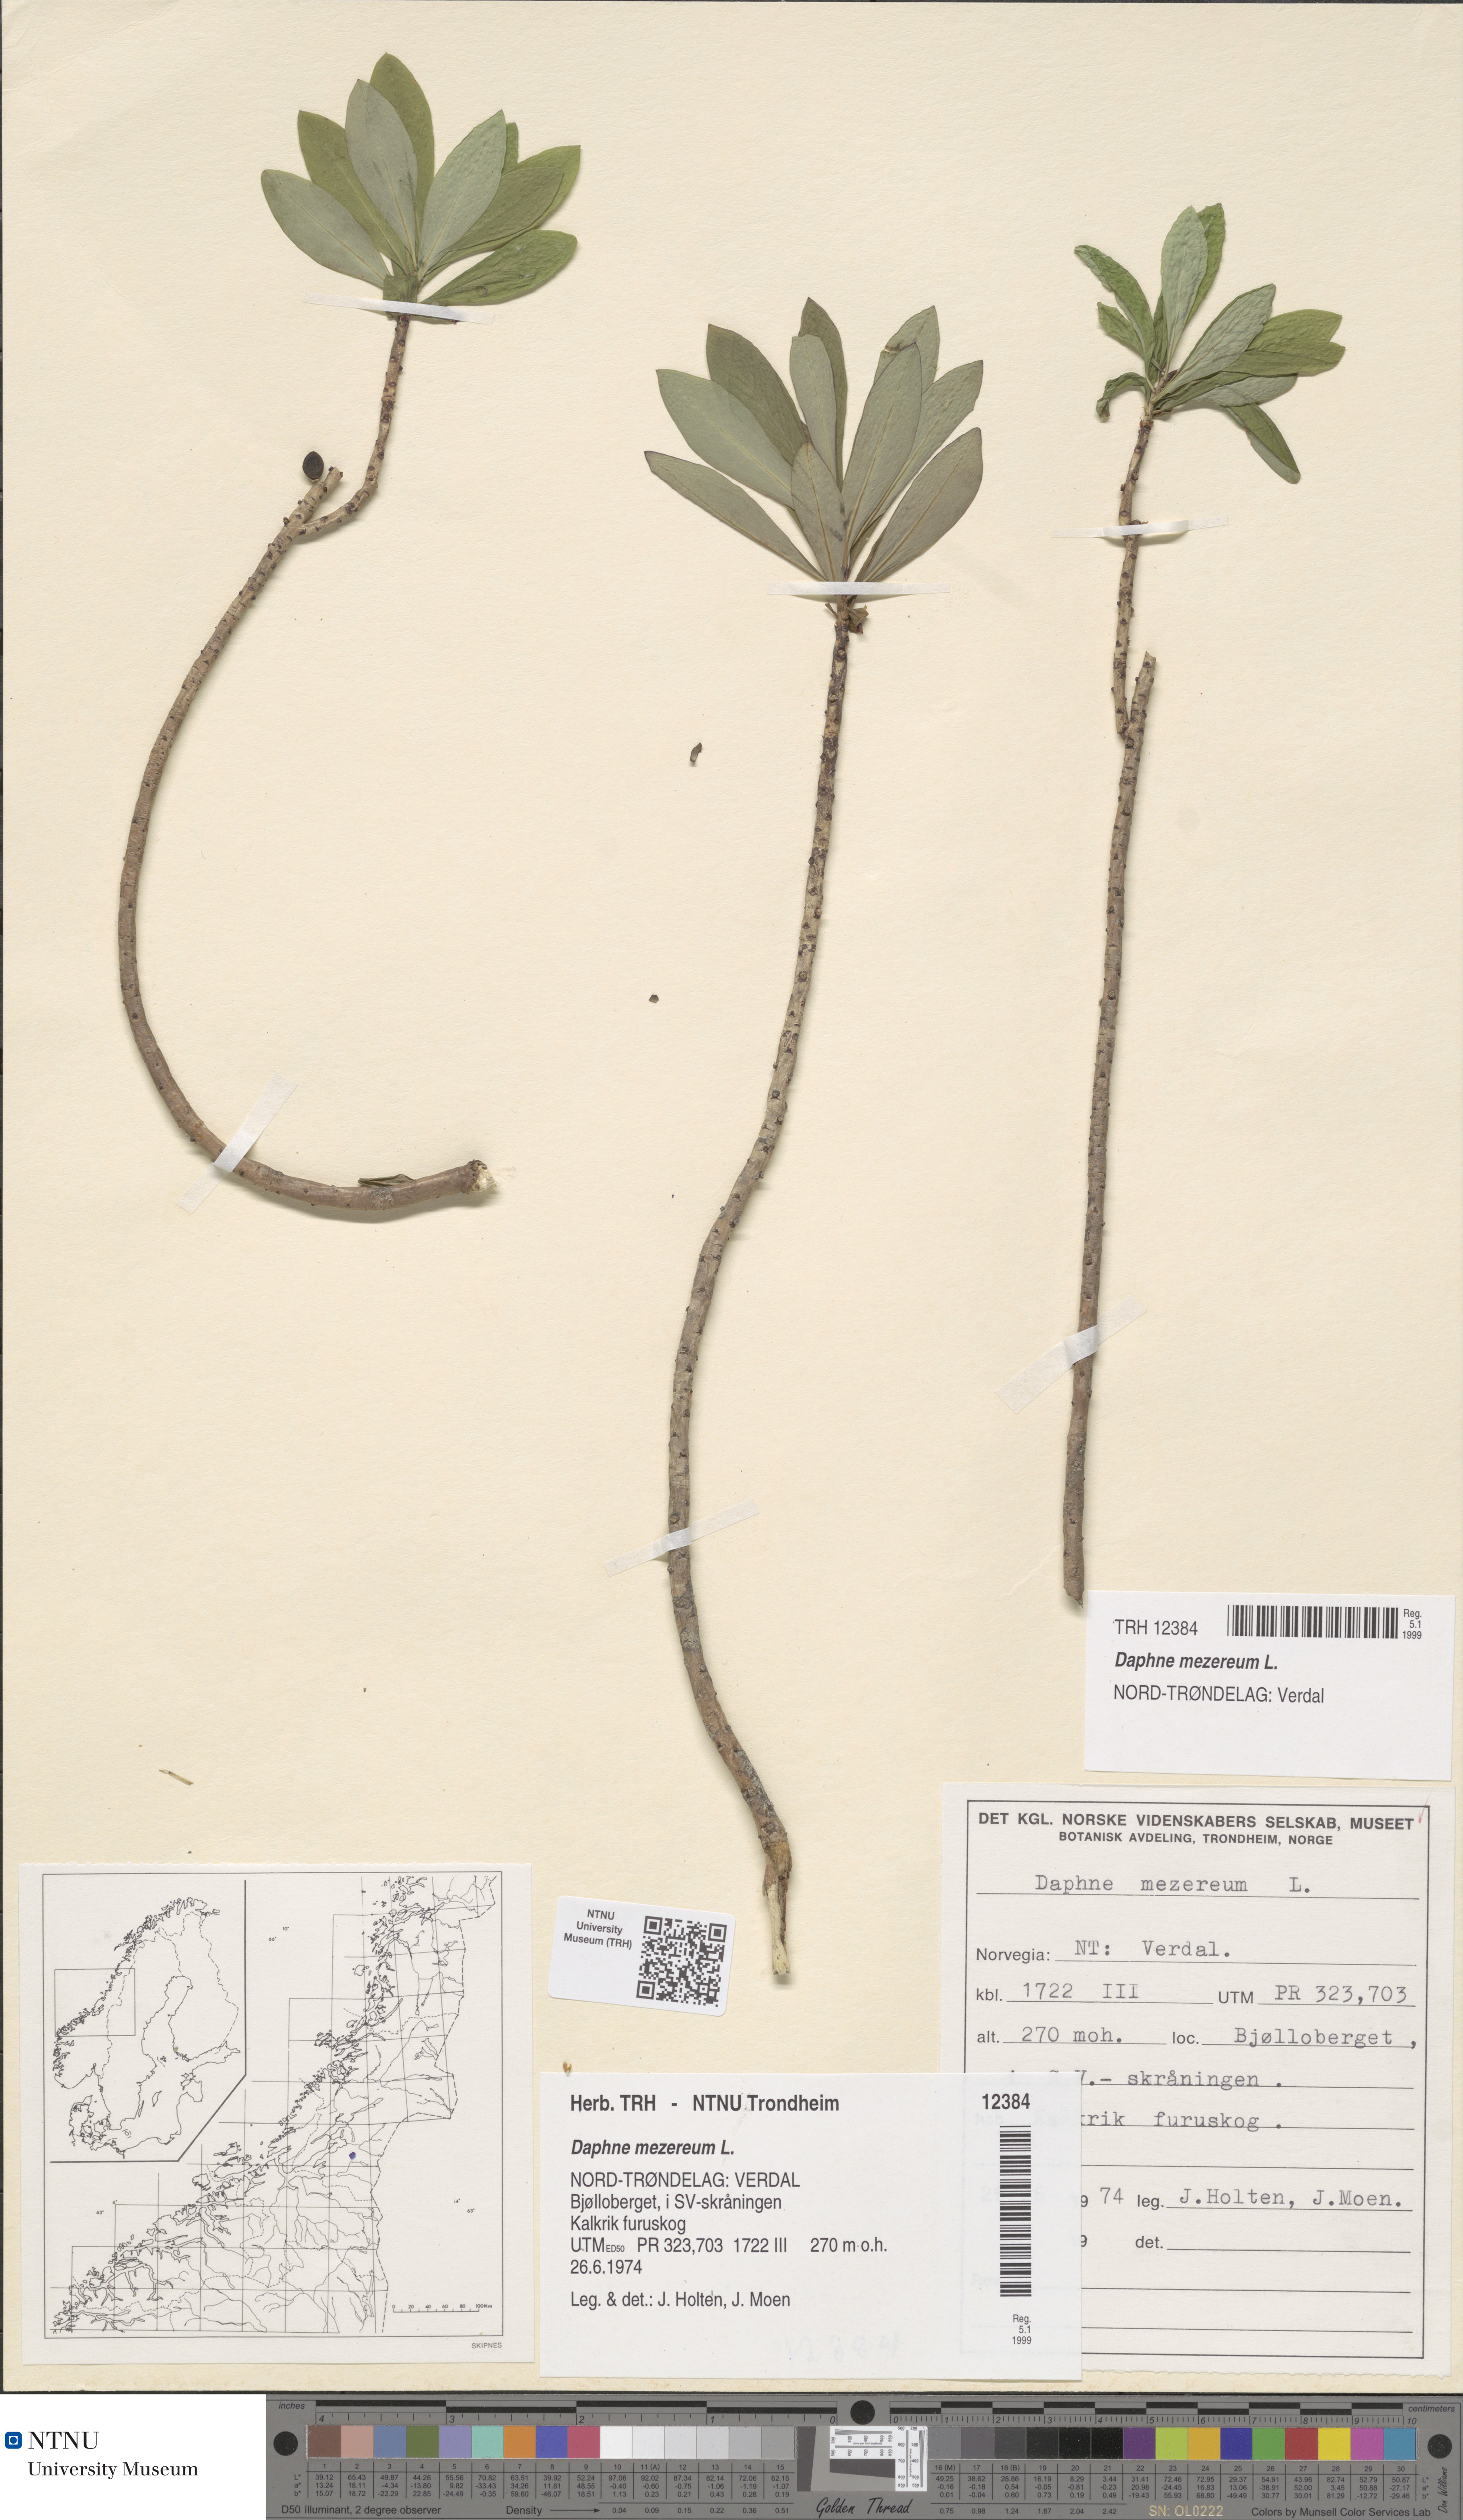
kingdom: Plantae
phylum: Tracheophyta
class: Magnoliopsida
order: Malvales
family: Thymelaeaceae
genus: Daphne
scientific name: Daphne mezereum
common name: Mezereon
